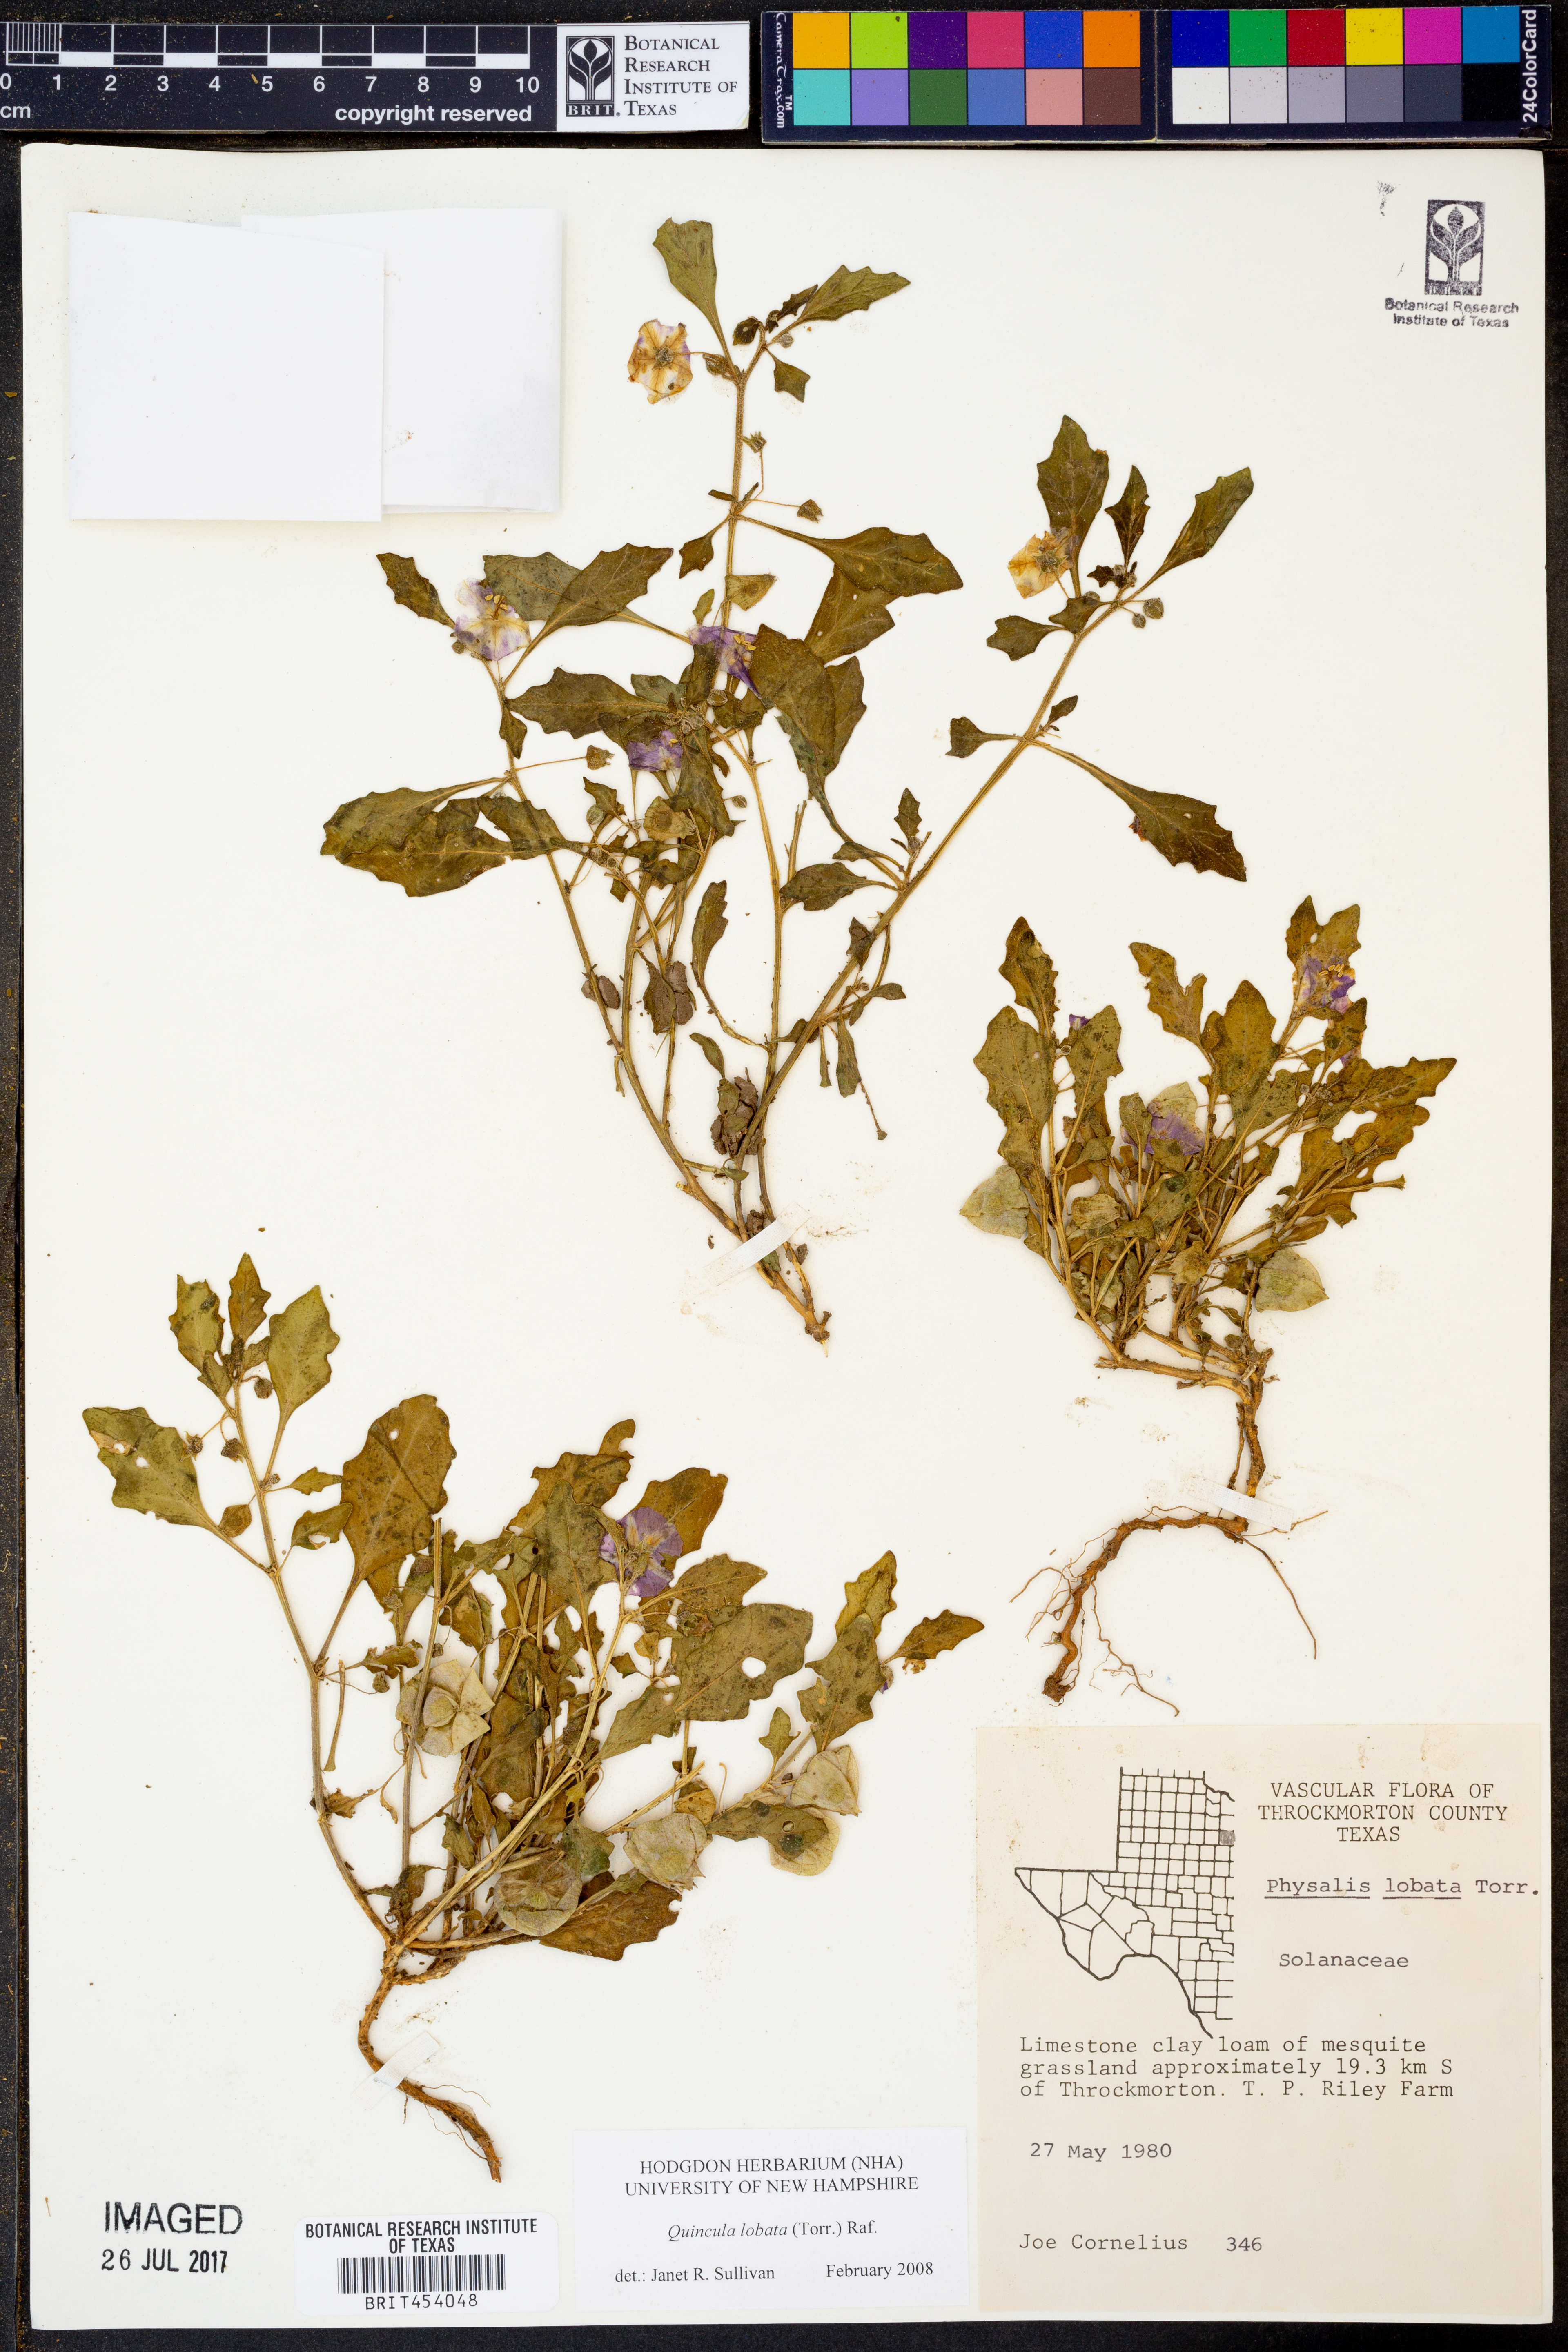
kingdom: Plantae
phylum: Tracheophyta
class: Magnoliopsida
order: Solanales
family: Solanaceae
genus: Quincula
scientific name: Quincula lobata
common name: Purple-ground-cherry
